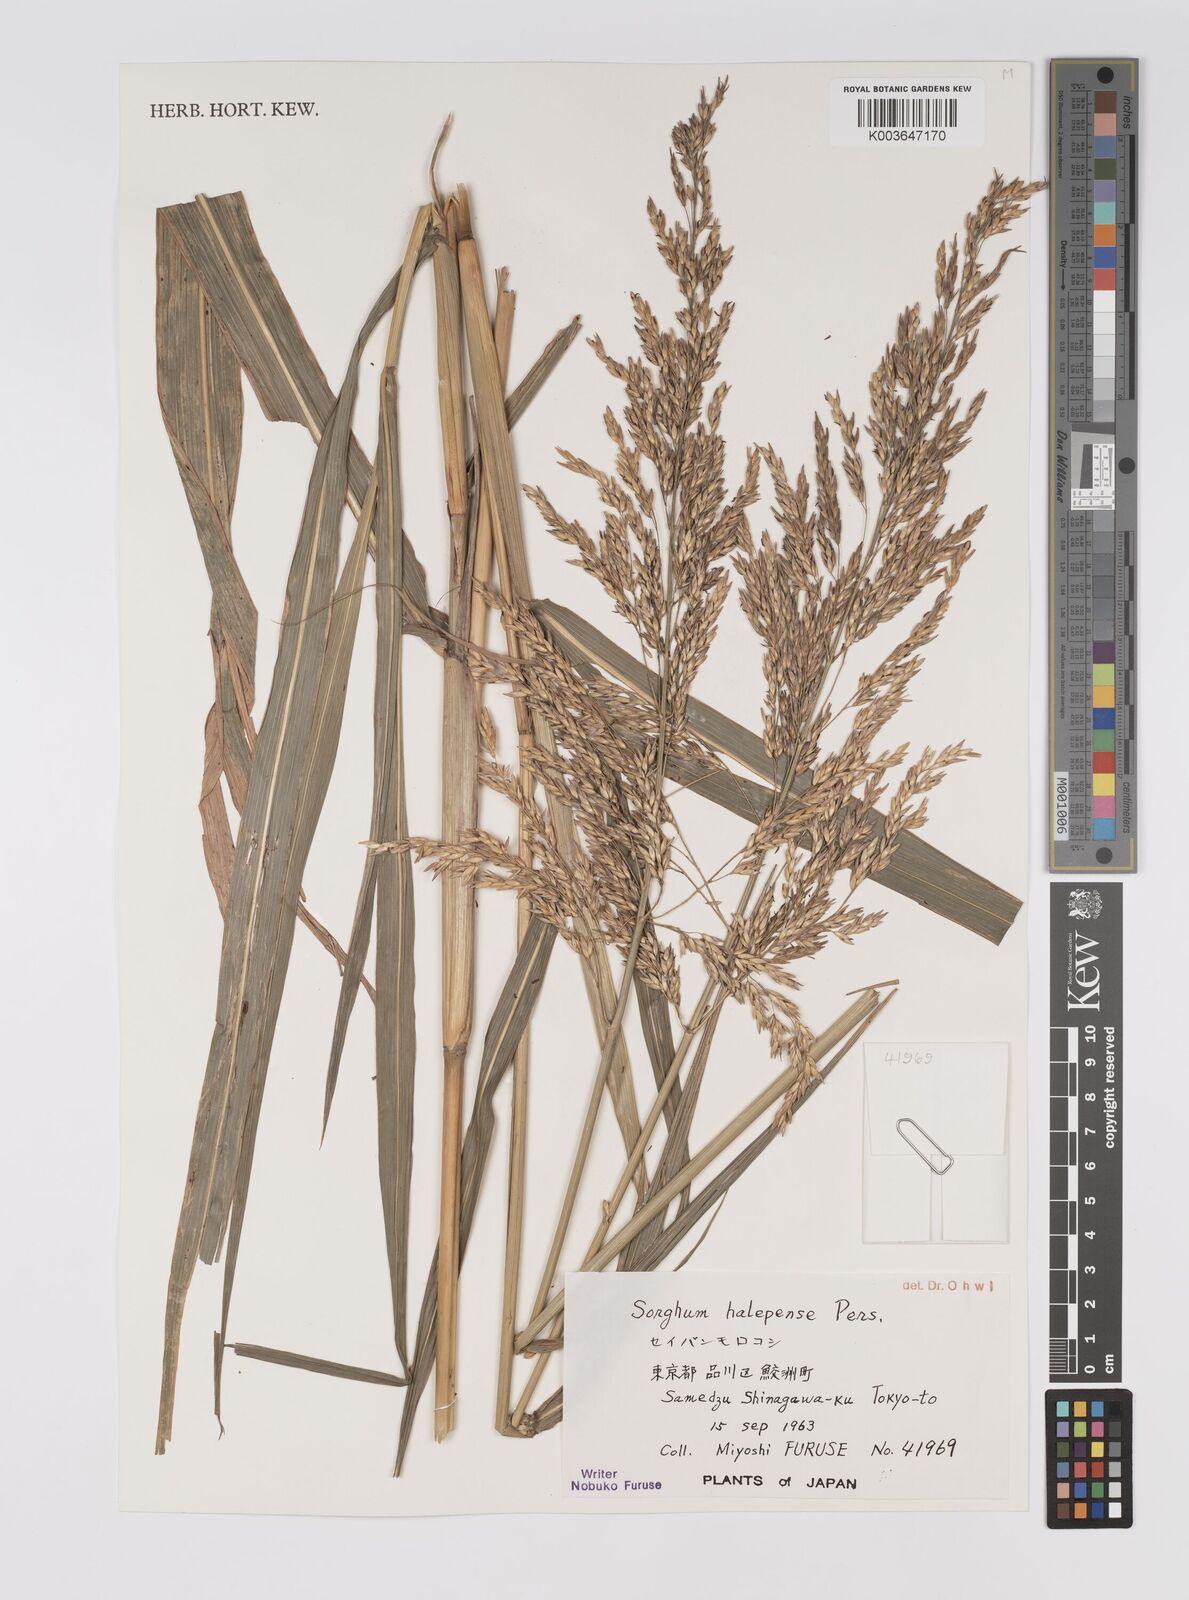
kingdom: Plantae
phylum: Tracheophyta
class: Liliopsida
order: Poales
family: Poaceae
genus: Sorghum
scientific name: Sorghum halepense
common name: Johnson-grass
